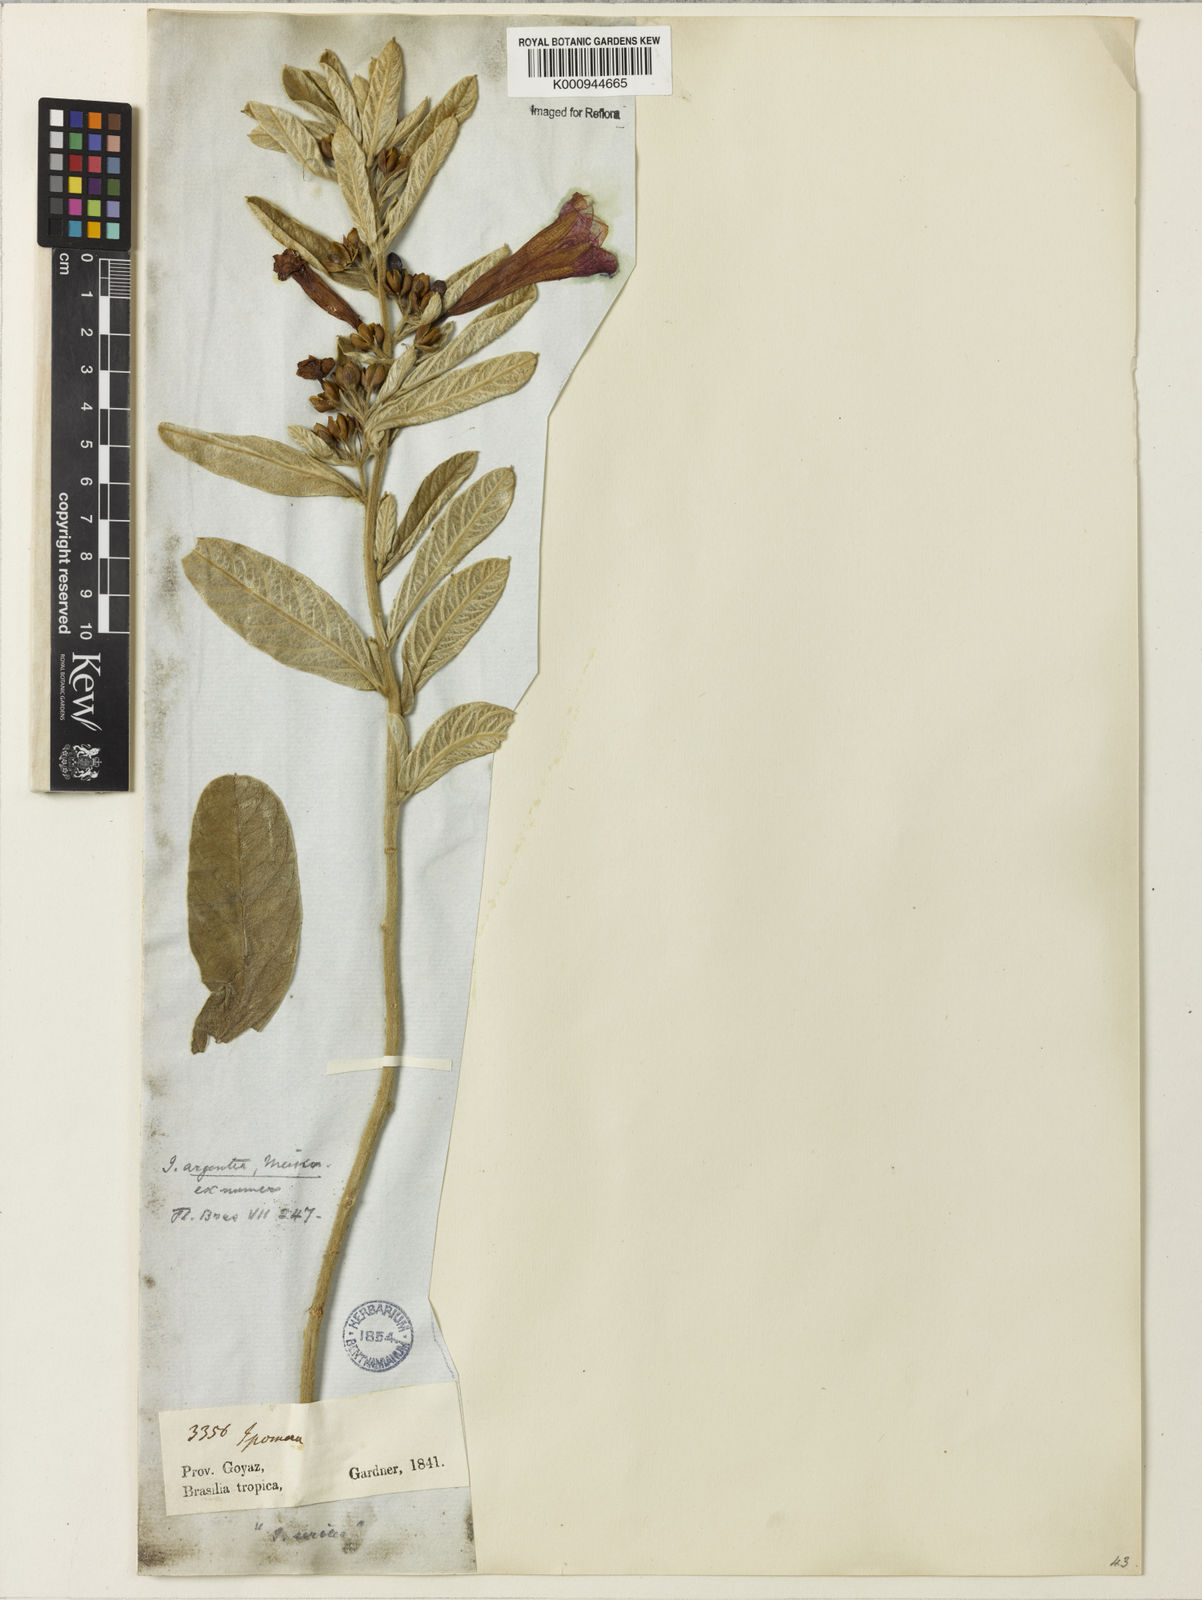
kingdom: Plantae
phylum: Tracheophyta
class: Magnoliopsida
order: Solanales
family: Convolvulaceae
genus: Ipomoea
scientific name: Ipomoea
